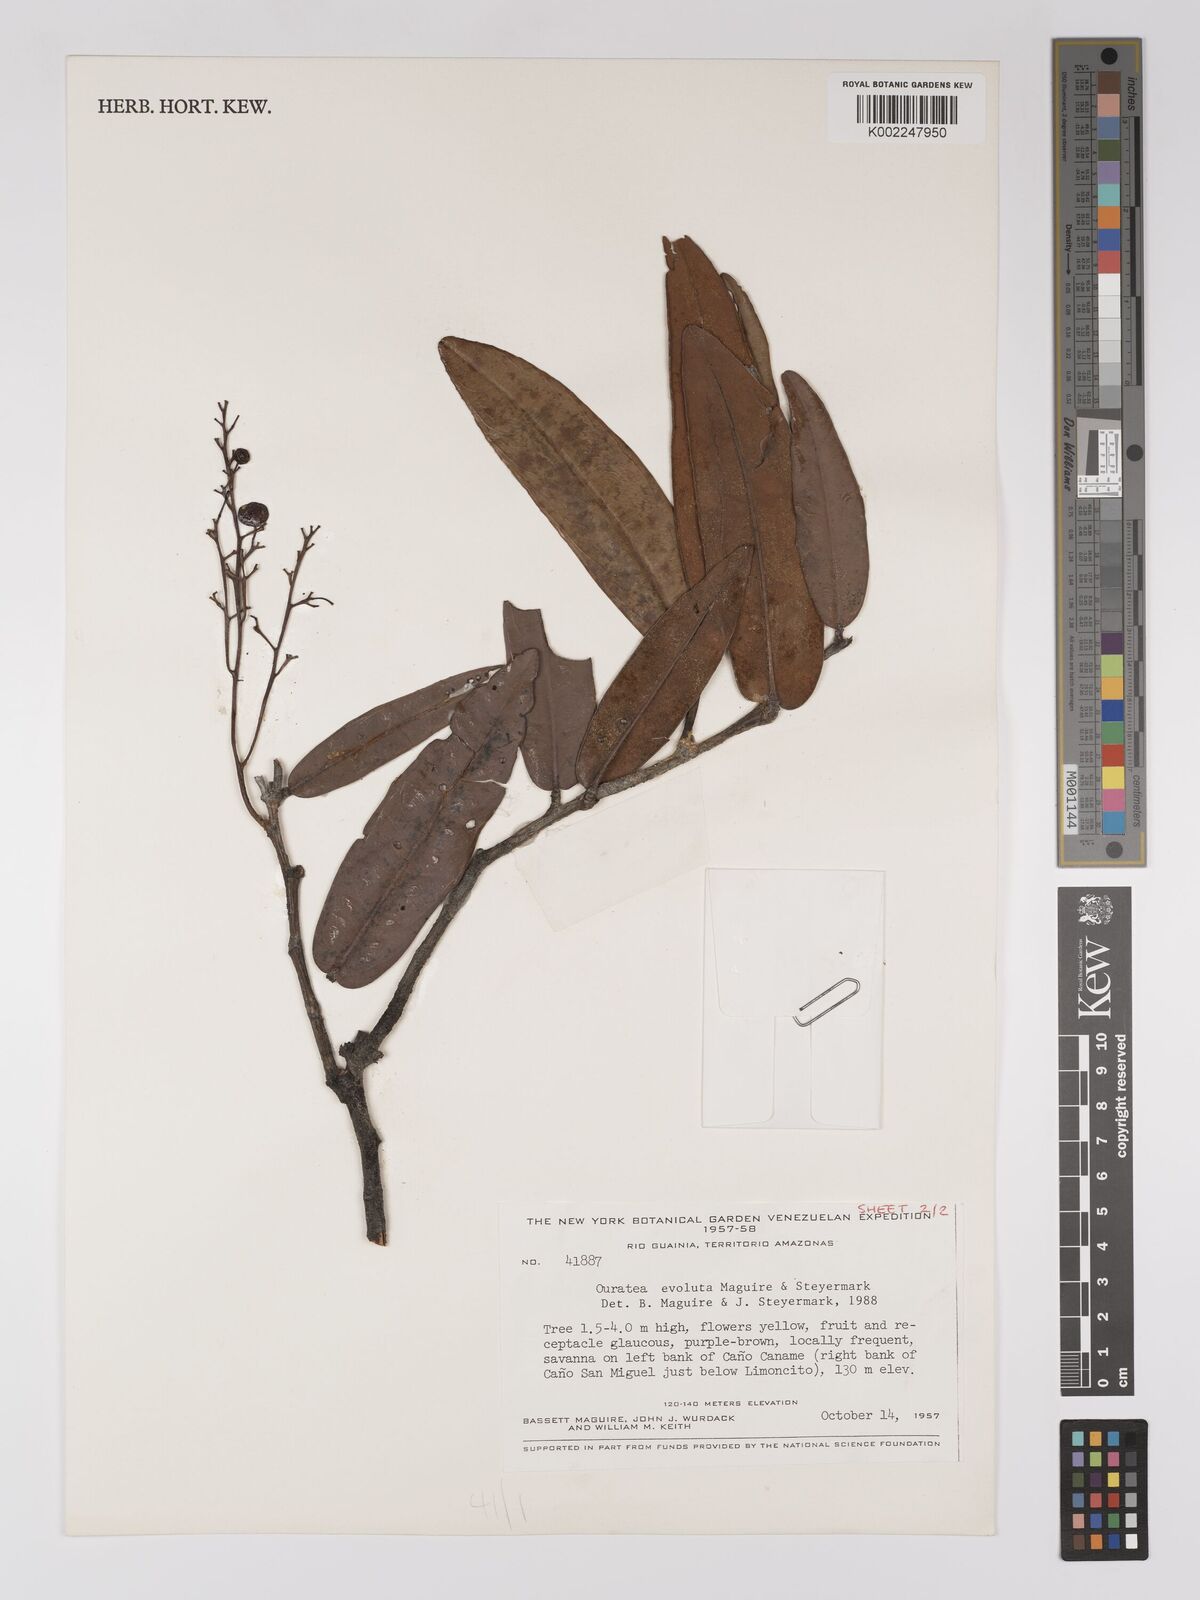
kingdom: Plantae
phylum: Tracheophyta
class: Magnoliopsida
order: Malpighiales
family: Ochnaceae
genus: Ouratea
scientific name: Ouratea evoluta
